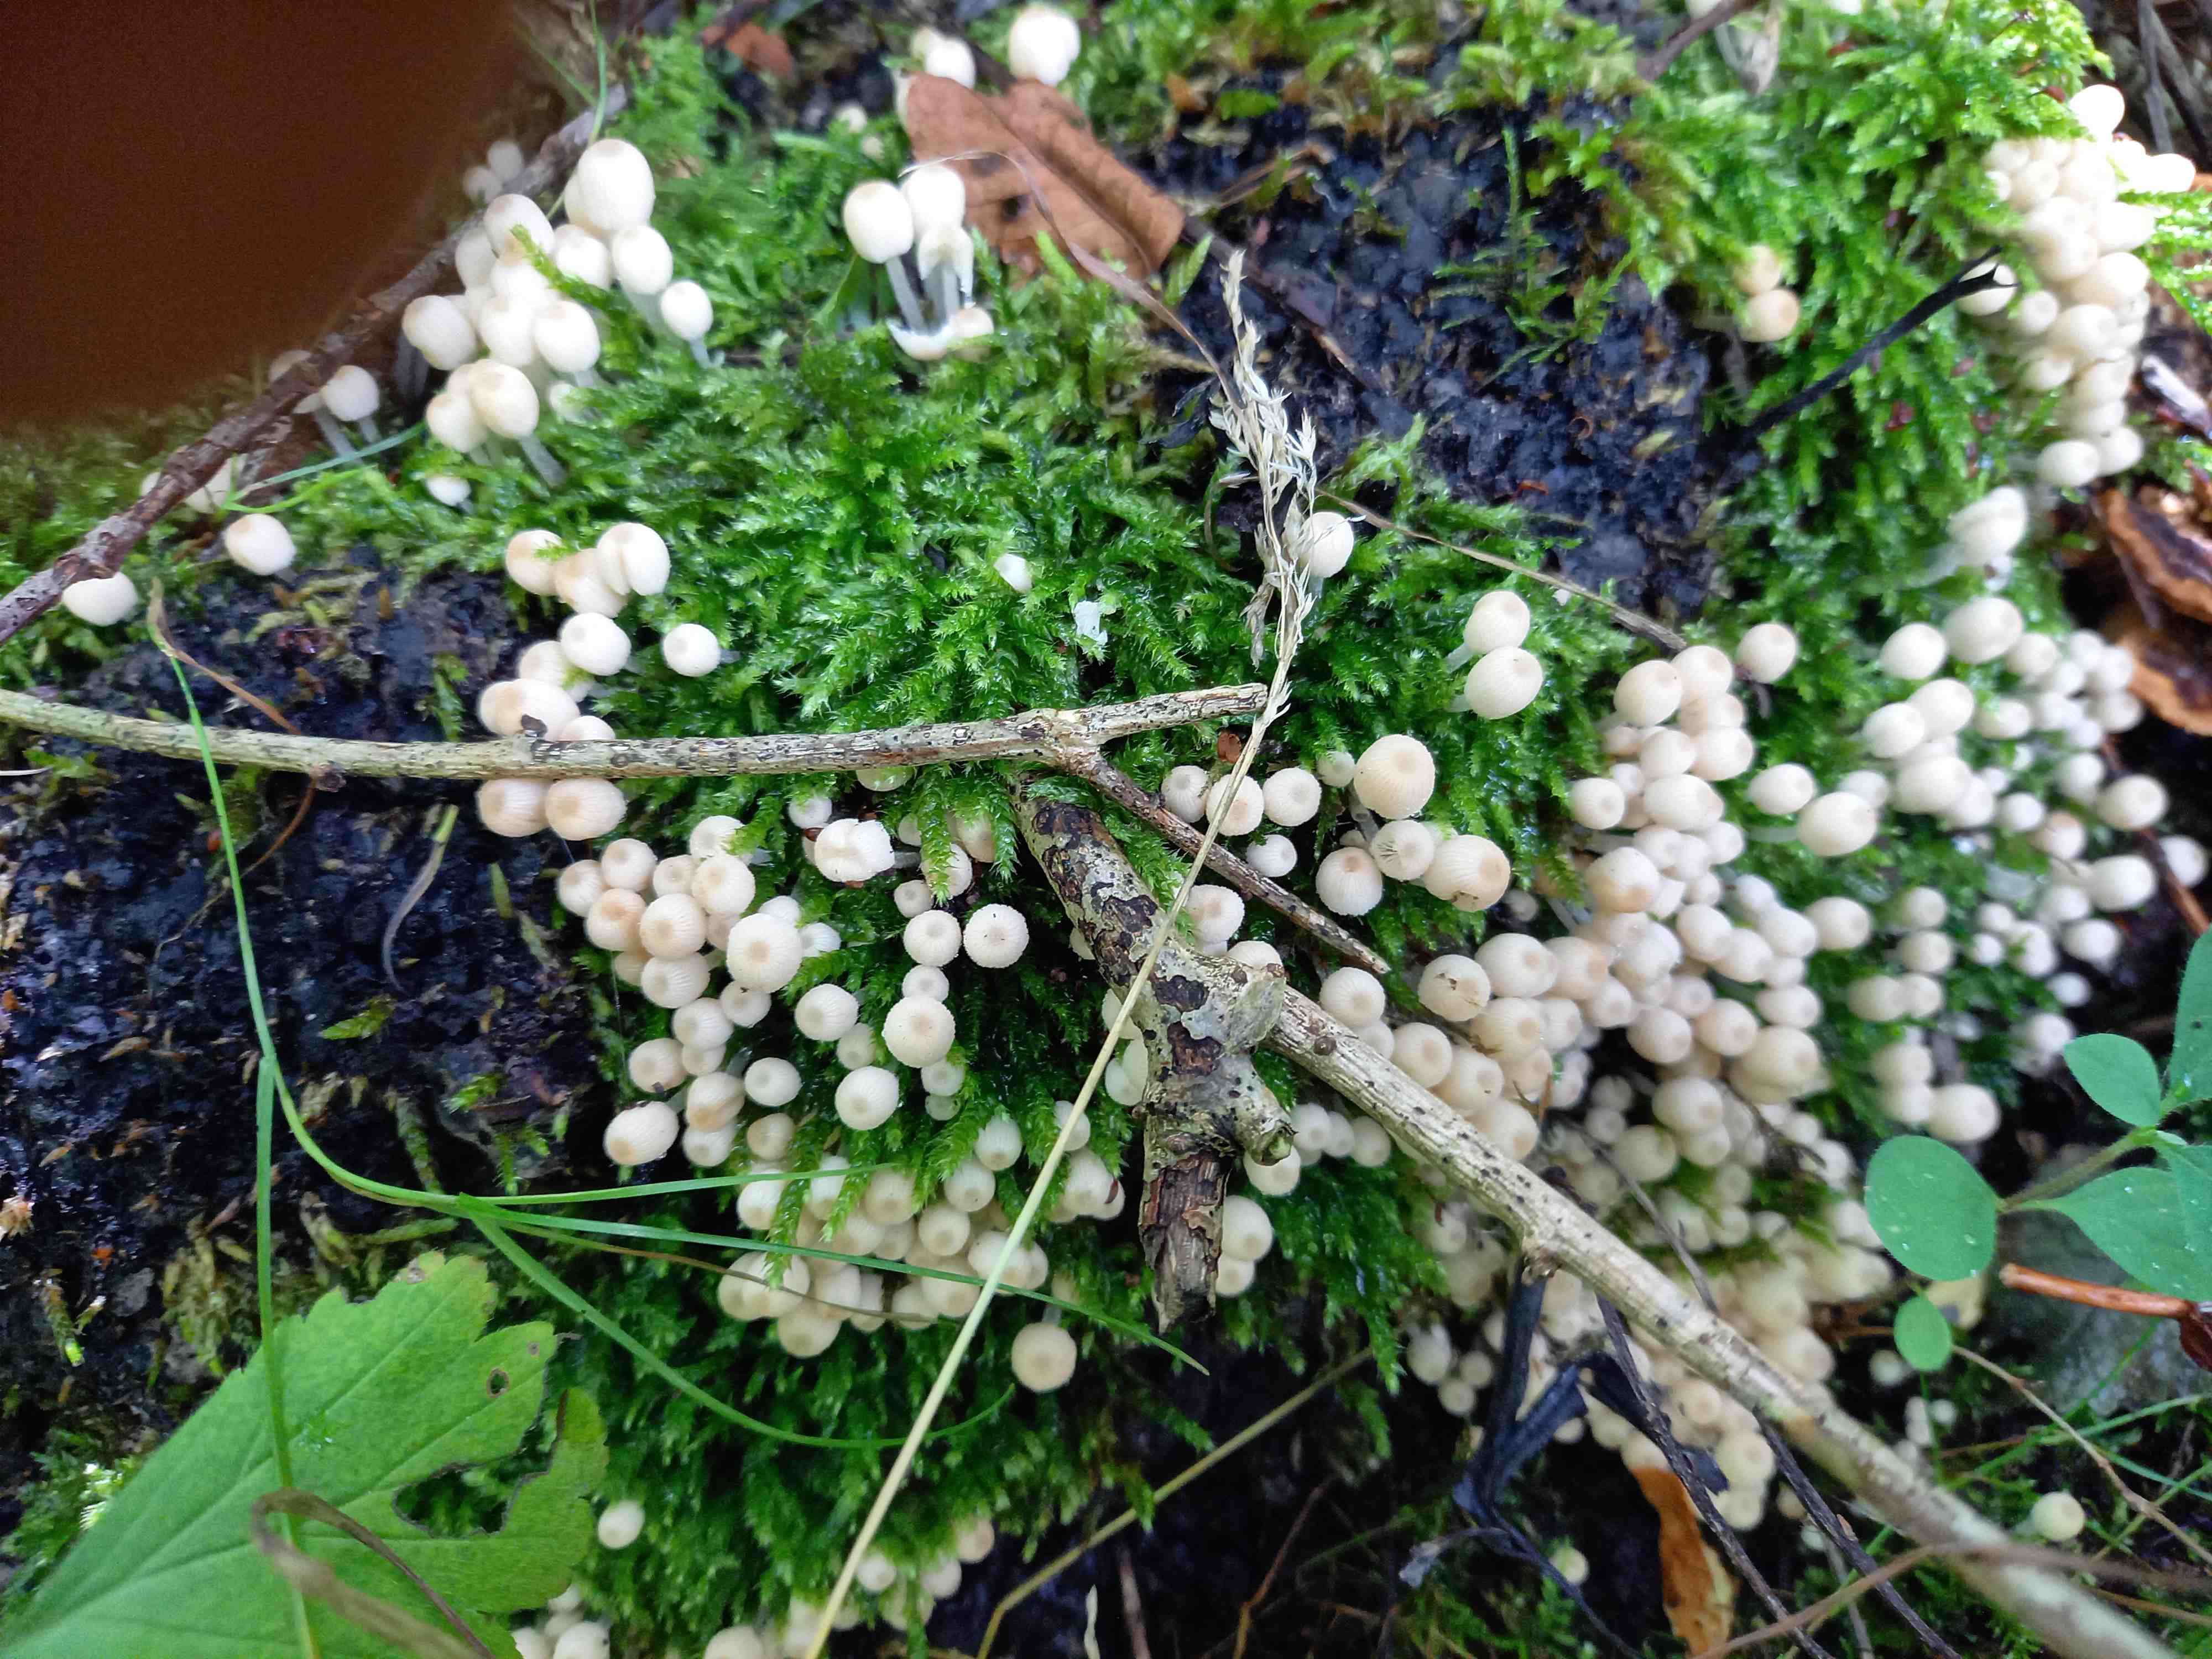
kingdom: Fungi
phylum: Basidiomycota
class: Agaricomycetes
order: Agaricales
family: Psathyrellaceae
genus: Coprinellus
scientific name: Coprinellus disseminatus
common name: bredsået blækhat
